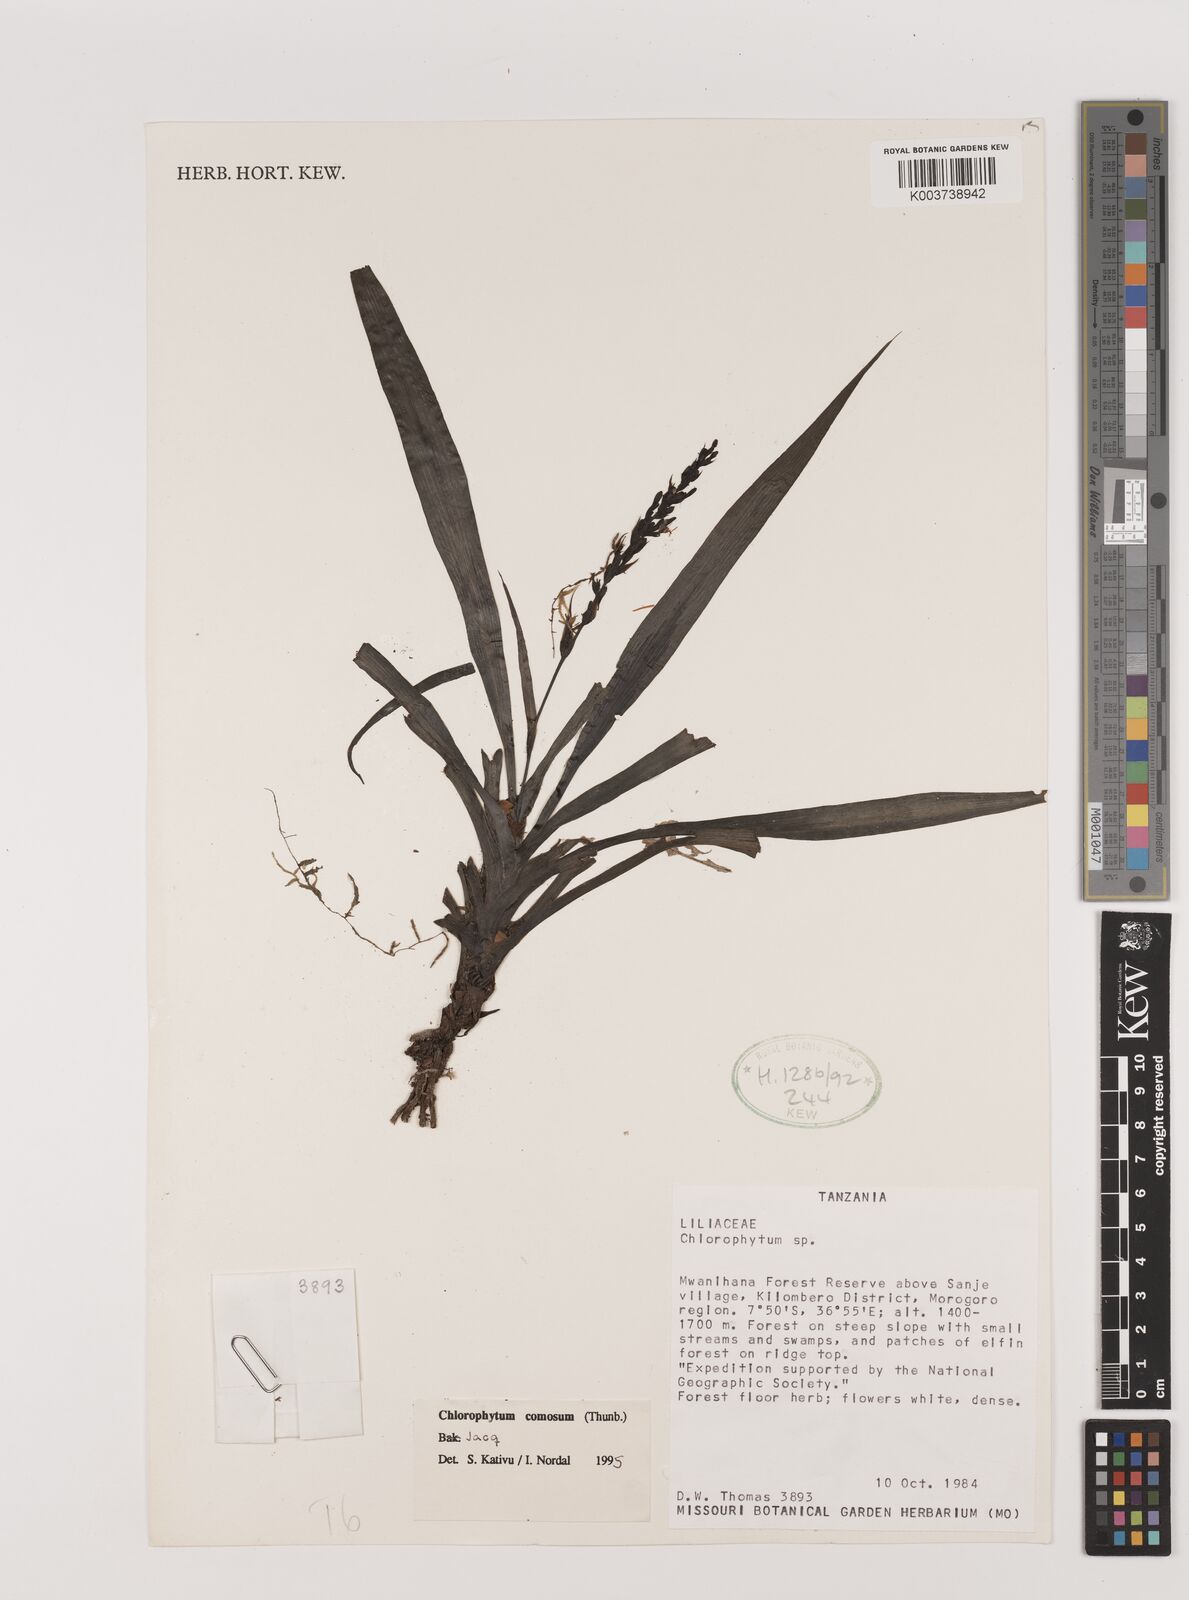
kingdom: Plantae
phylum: Tracheophyta
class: Liliopsida
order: Asparagales
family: Asparagaceae
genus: Chlorophytum
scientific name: Chlorophytum comosum
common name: Spider plant
